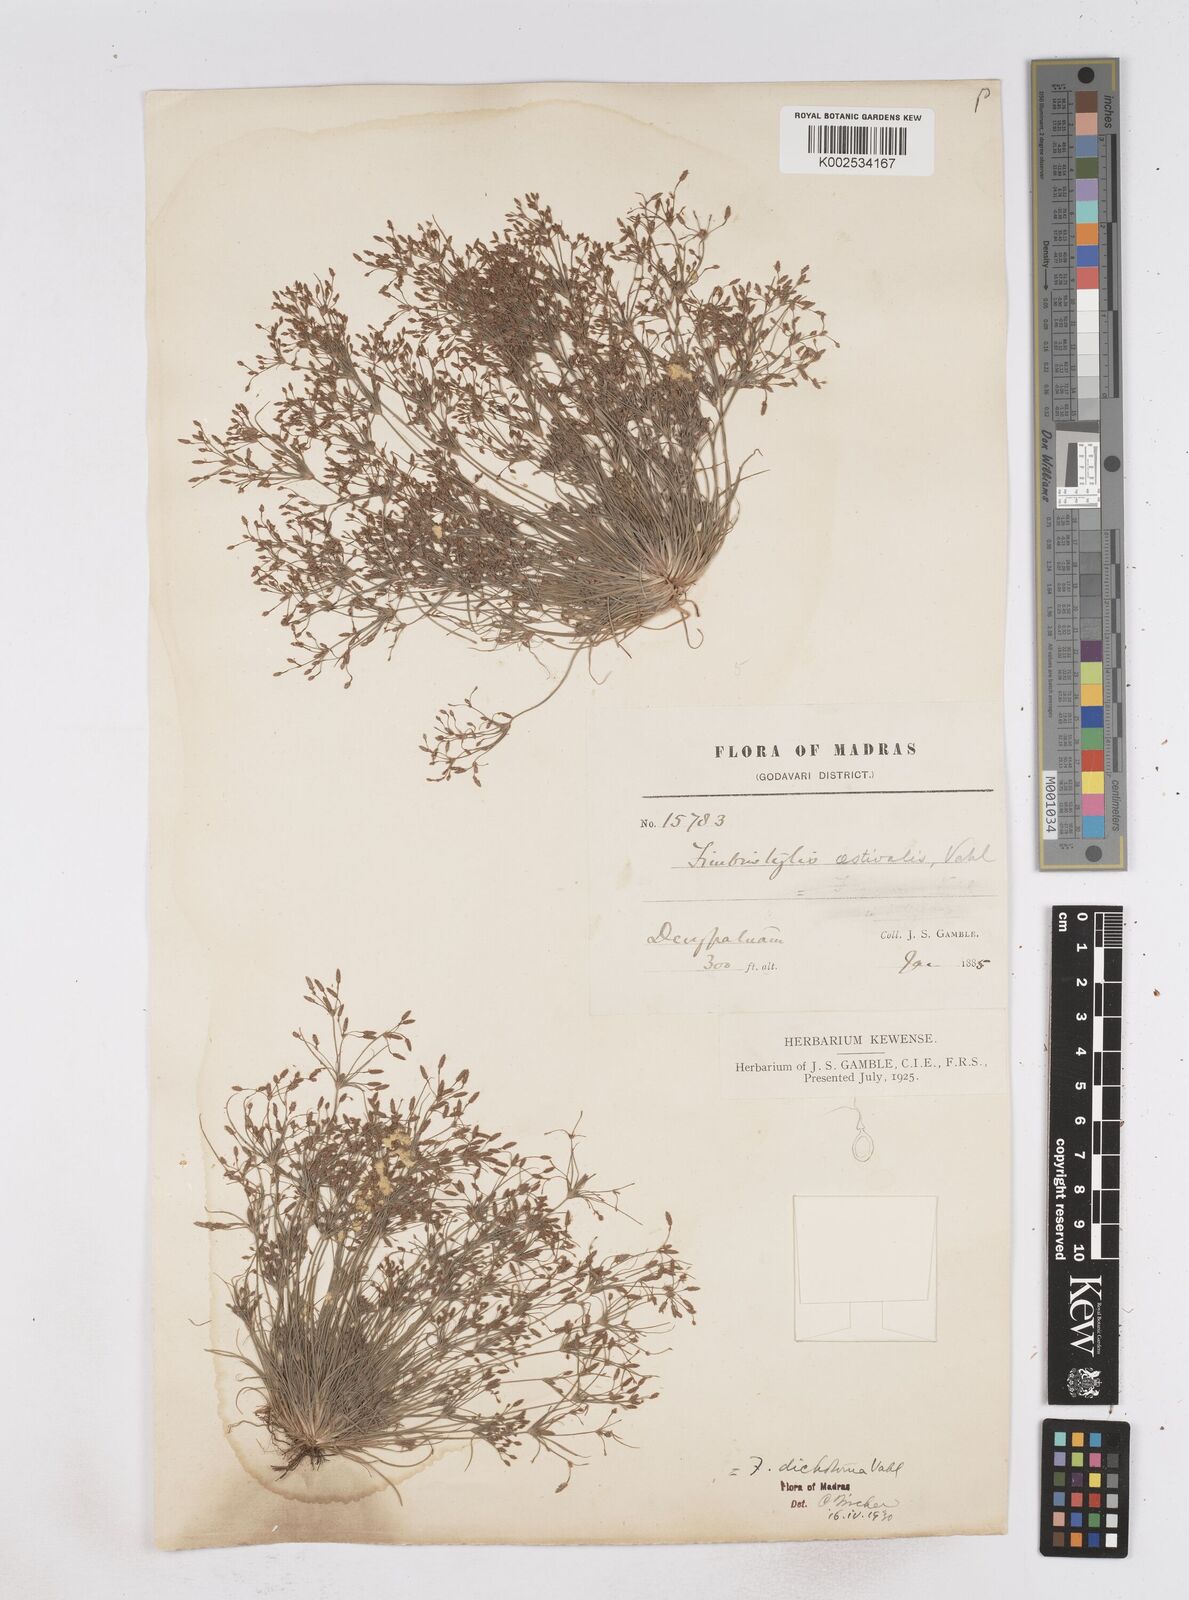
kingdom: Plantae
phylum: Tracheophyta
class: Liliopsida
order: Poales
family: Cyperaceae
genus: Fimbristylis
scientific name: Fimbristylis aestivalis
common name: Summer fimbry
